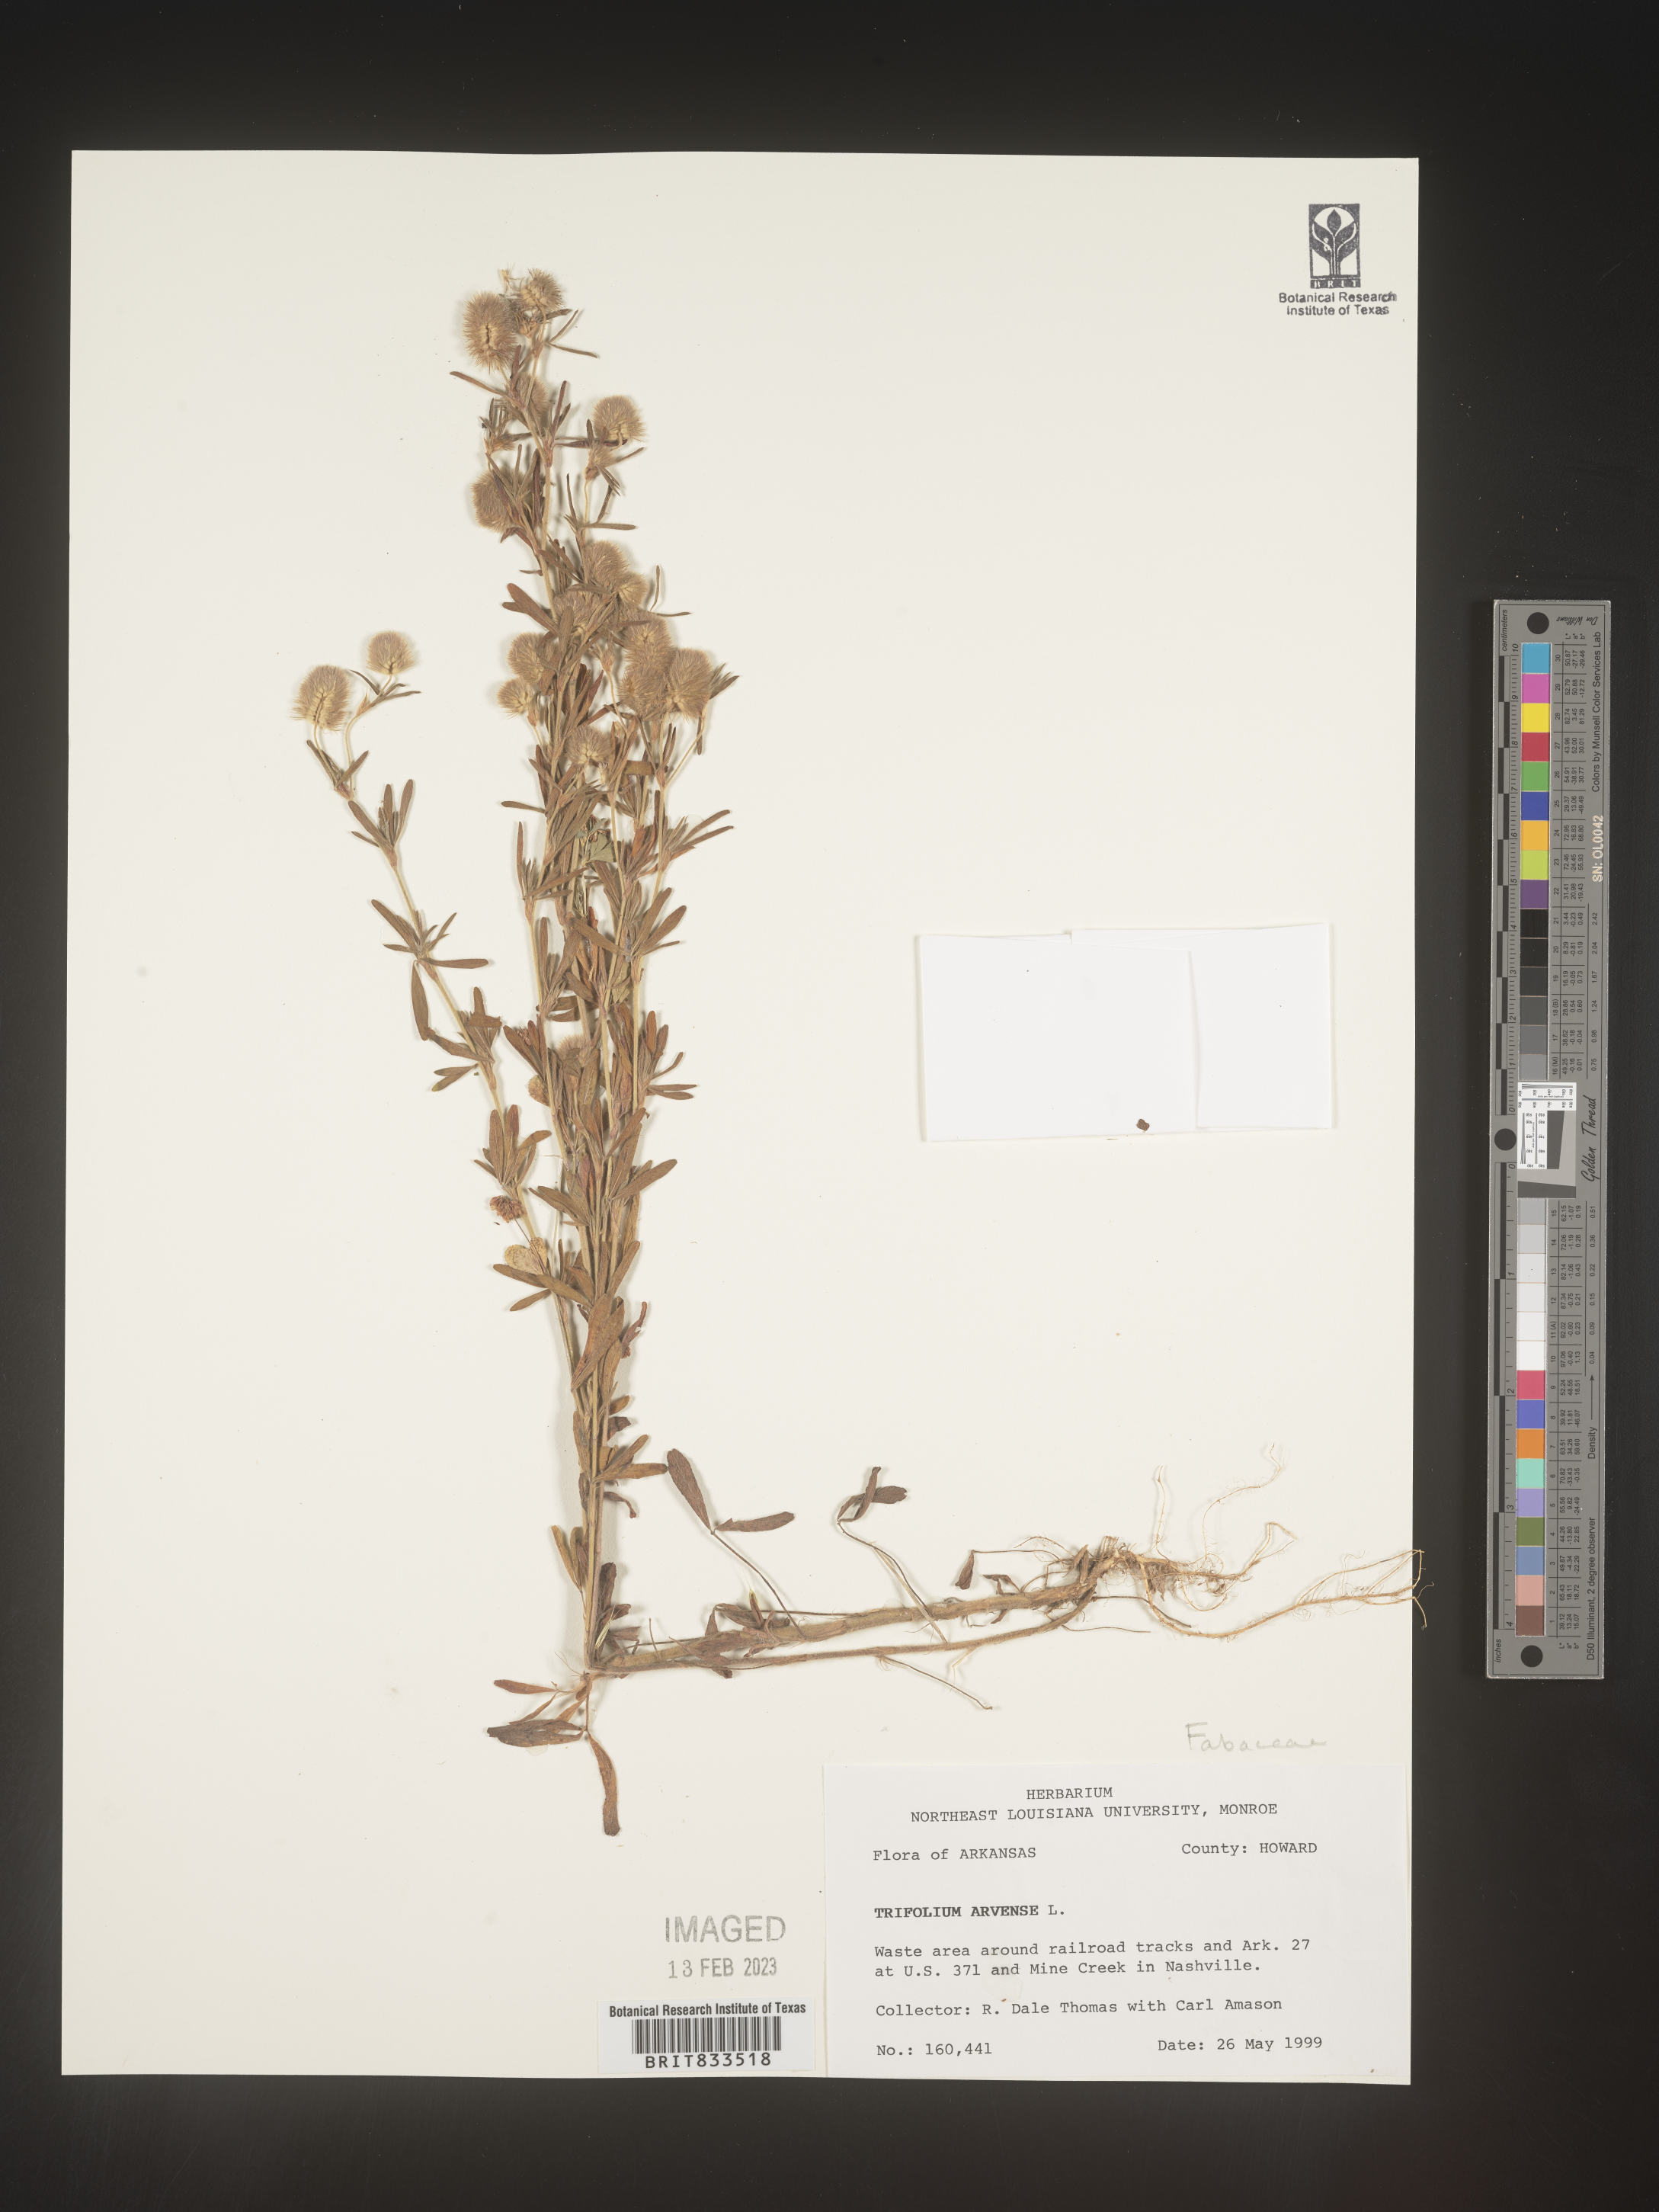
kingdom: Plantae
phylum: Tracheophyta
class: Magnoliopsida
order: Fabales
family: Fabaceae
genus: Trifolium
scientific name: Trifolium arvense
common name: Hare's-foot clover
